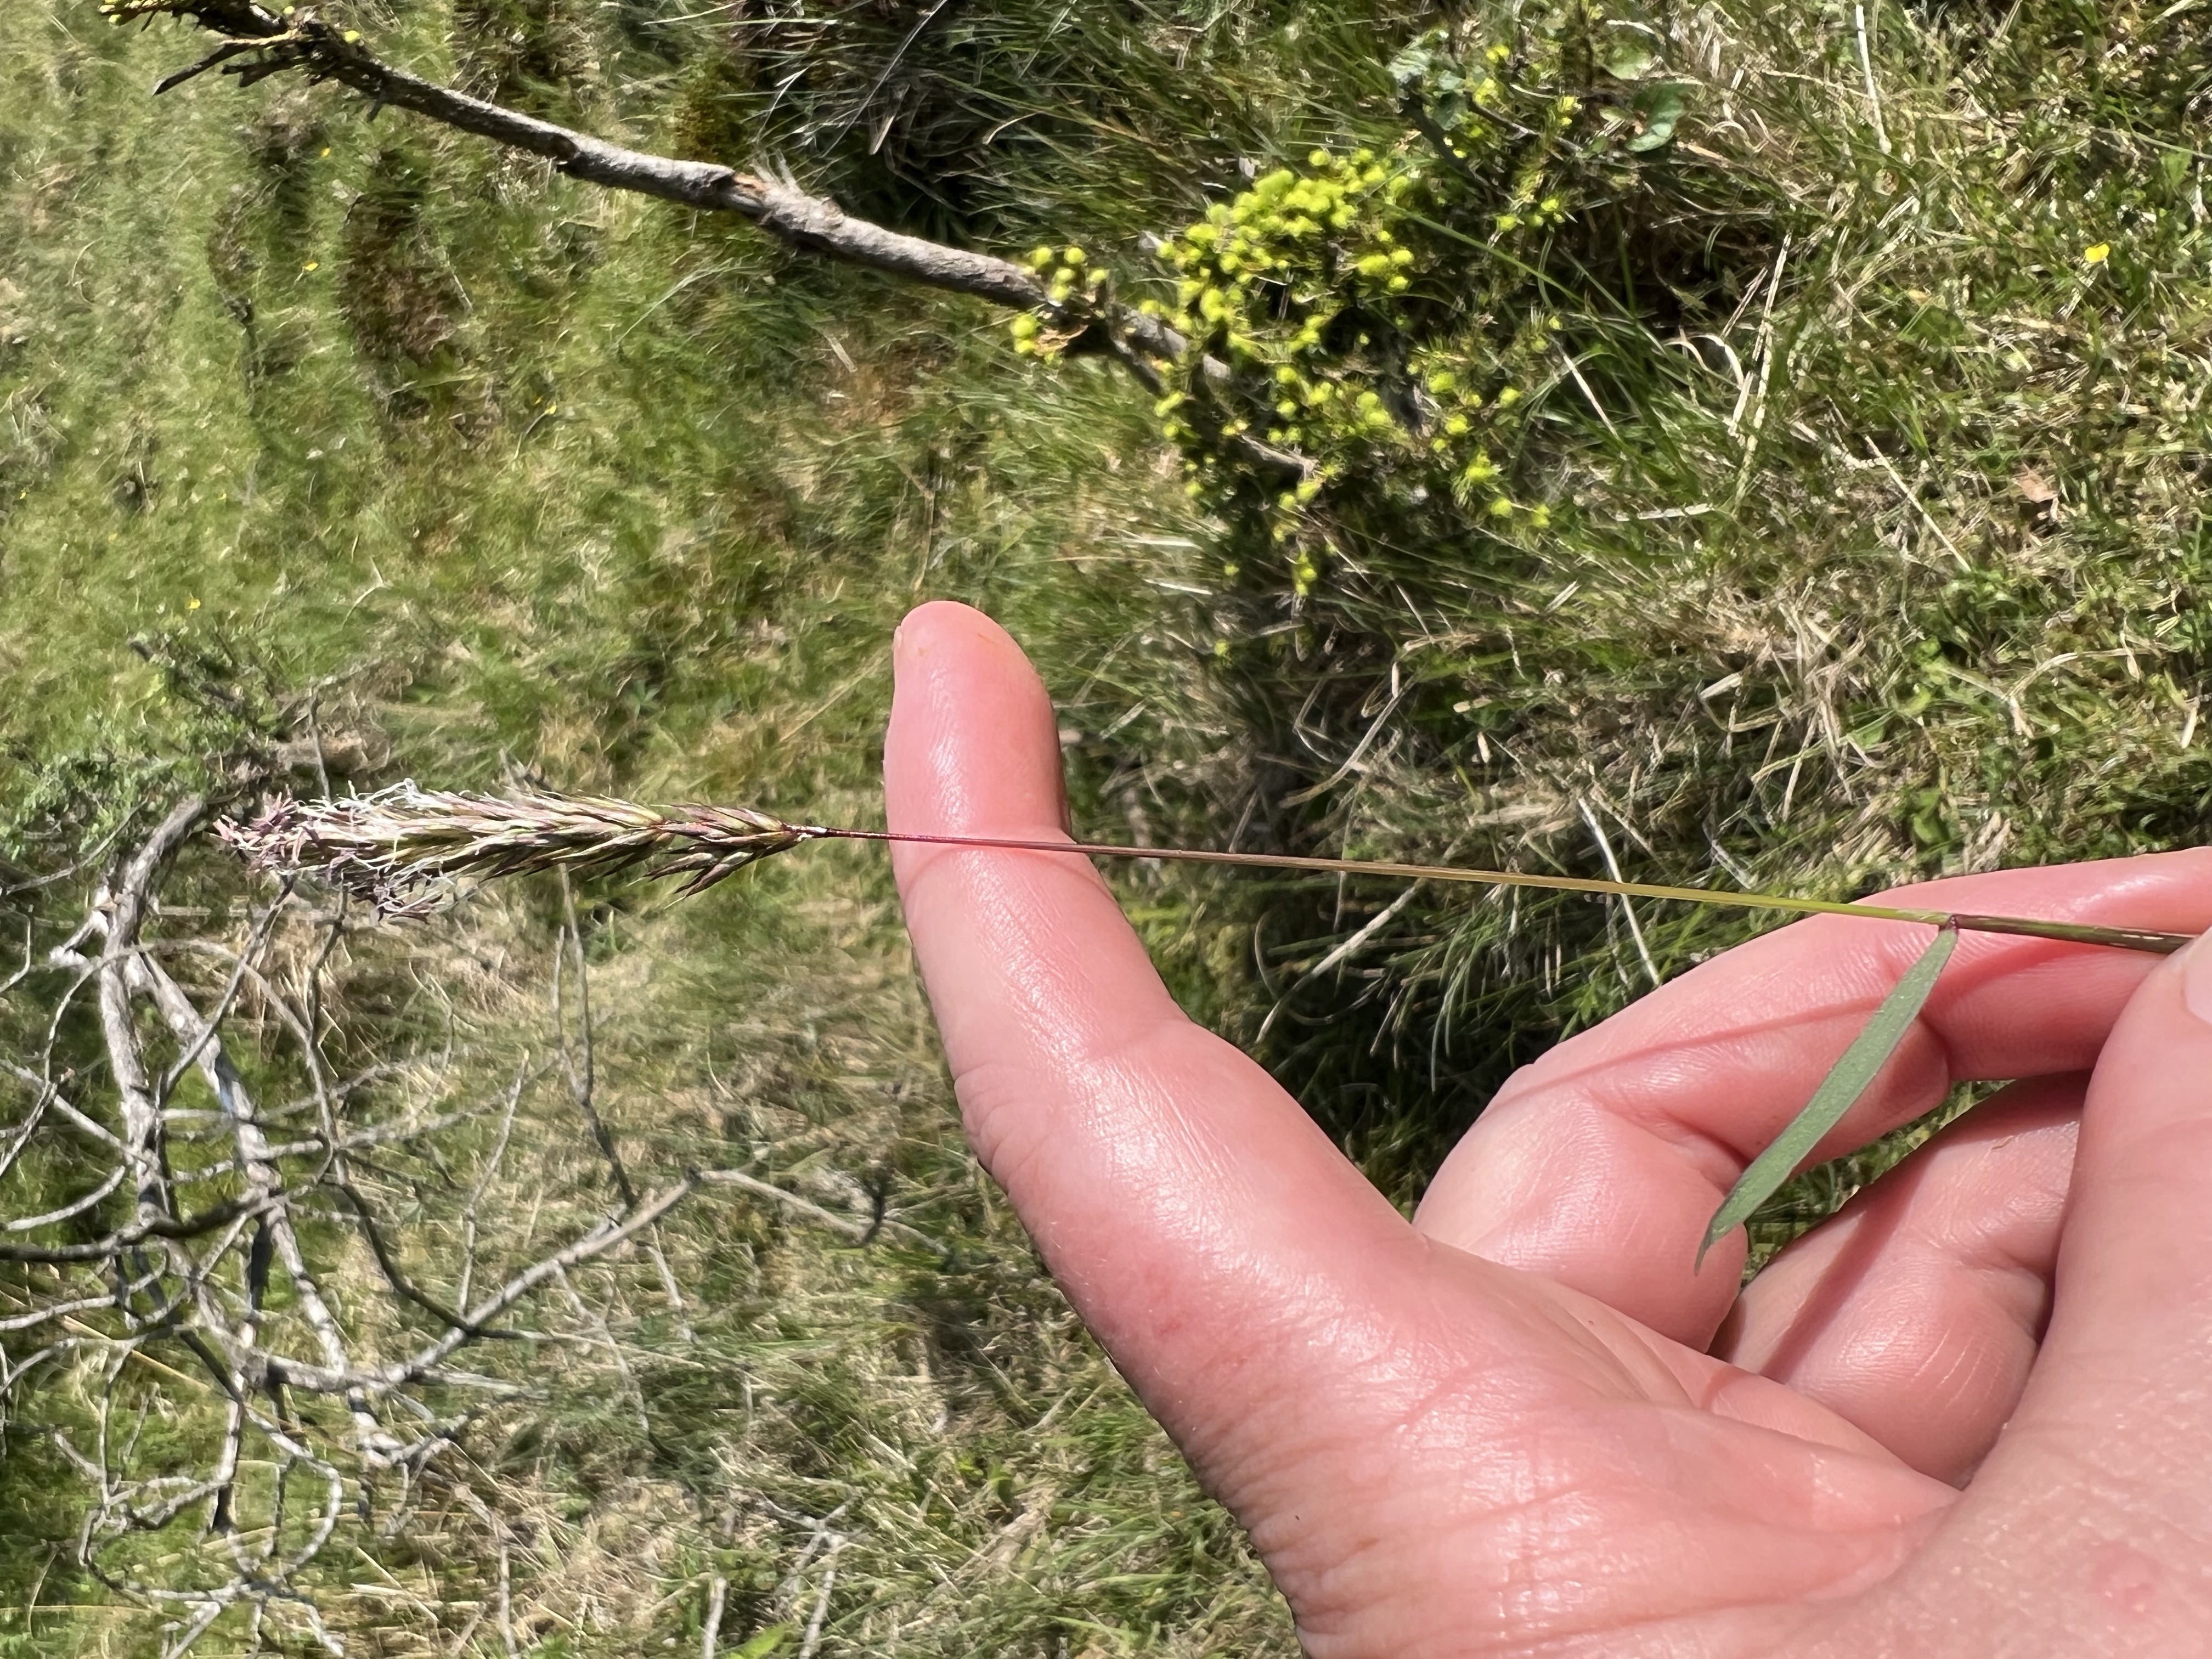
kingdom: Plantae
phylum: Tracheophyta
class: Liliopsida
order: Poales
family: Poaceae
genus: Anthoxanthum
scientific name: Anthoxanthum odoratum
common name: Vellugtende gulaks
